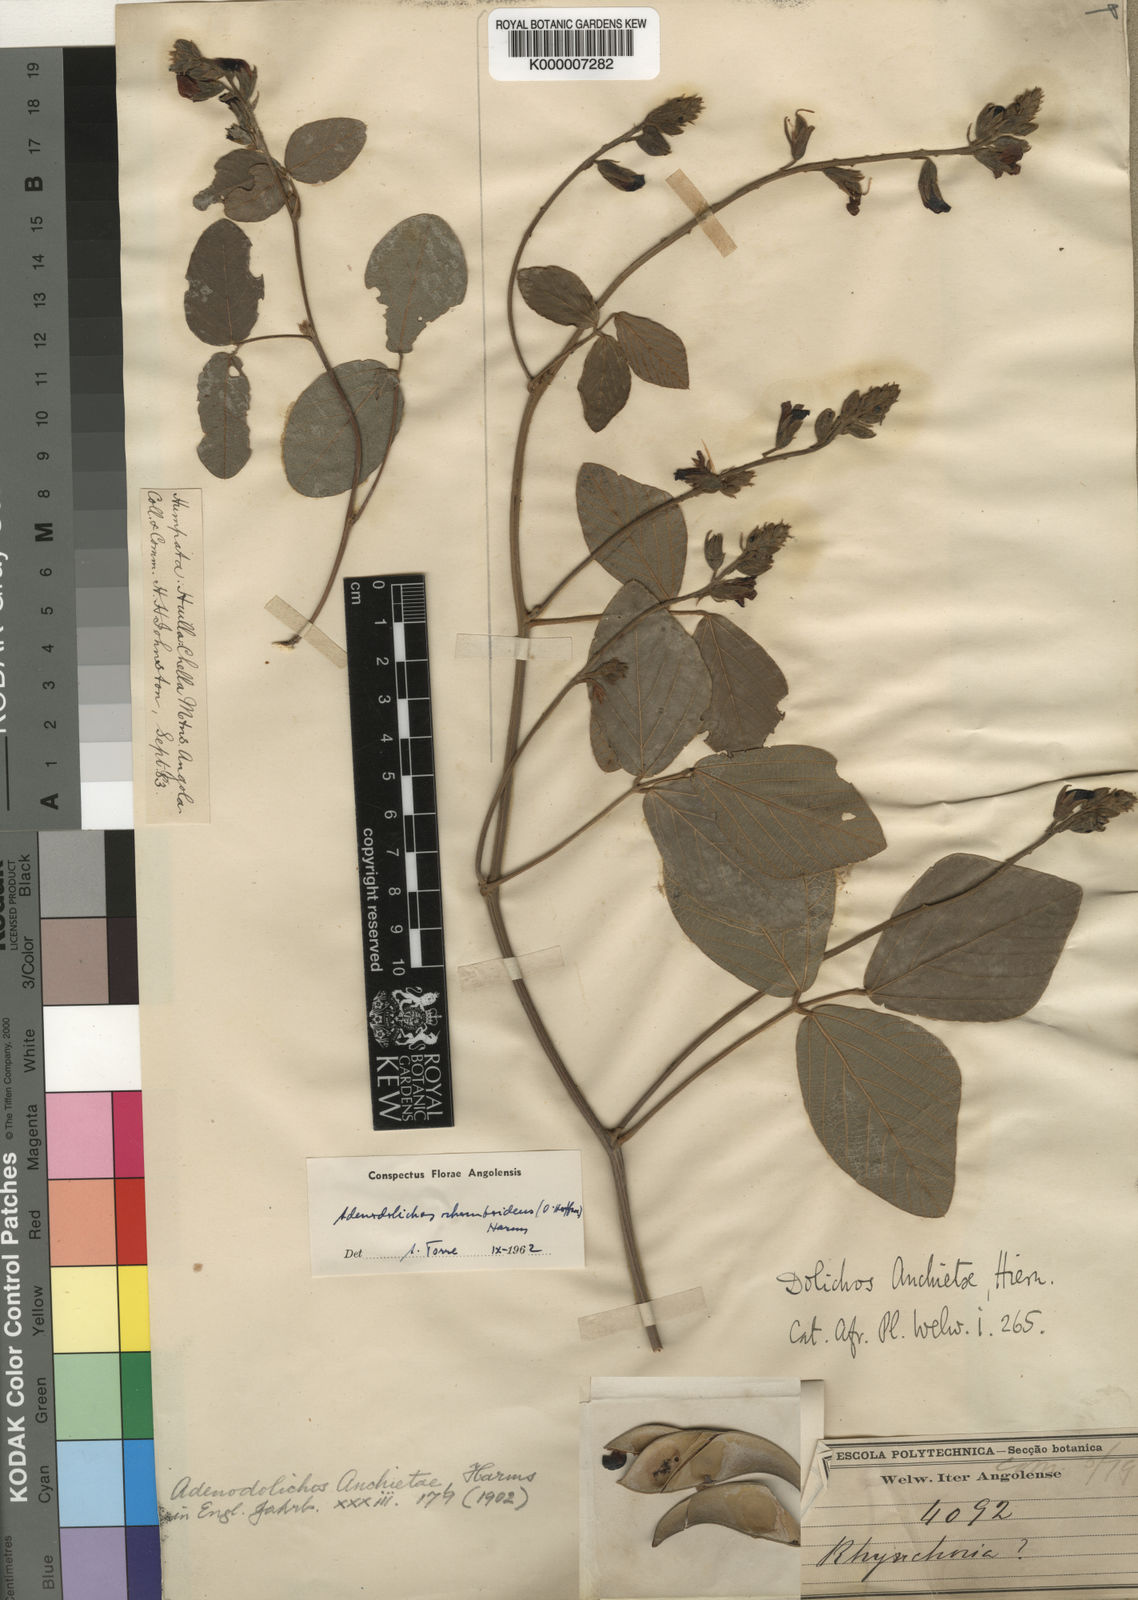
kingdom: Plantae
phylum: Tracheophyta
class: Magnoliopsida
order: Fabales
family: Fabaceae
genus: Adenodolichos
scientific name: Adenodolichos rhomboideus
